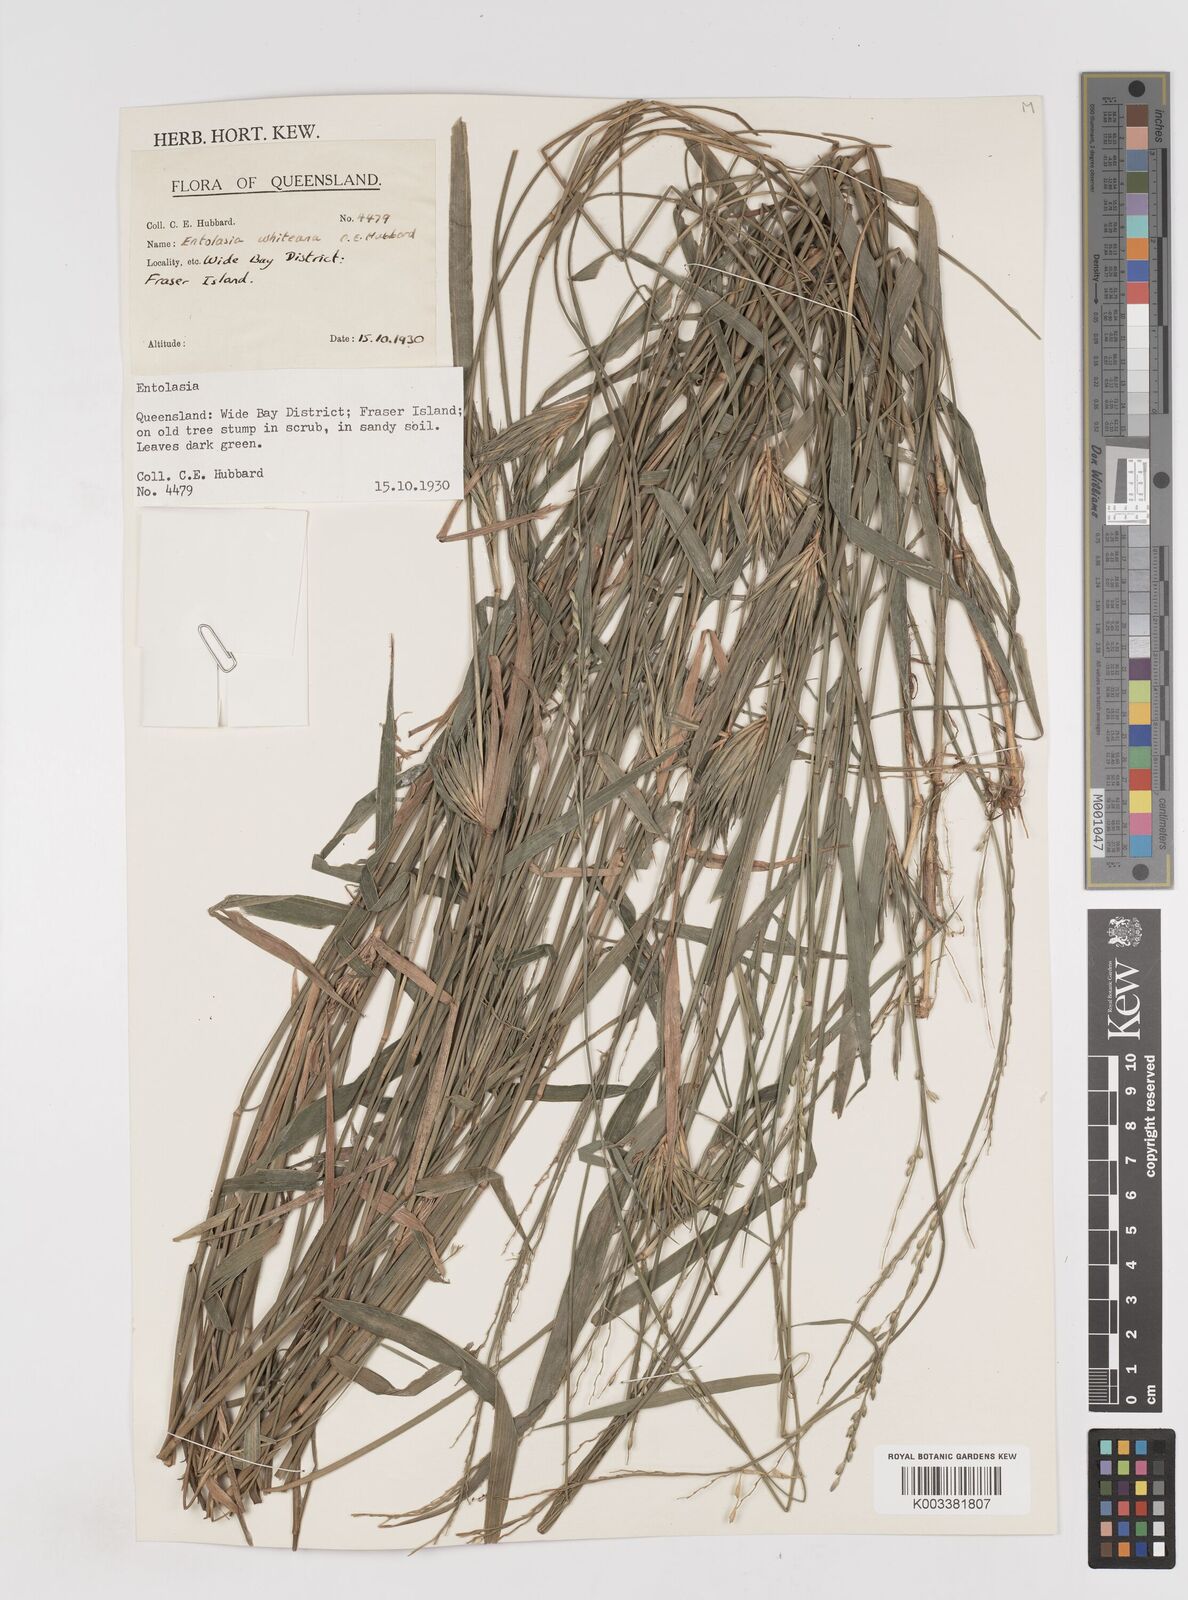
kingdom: Plantae
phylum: Tracheophyta
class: Liliopsida
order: Poales
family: Poaceae
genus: Entolasia
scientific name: Entolasia whiteana
